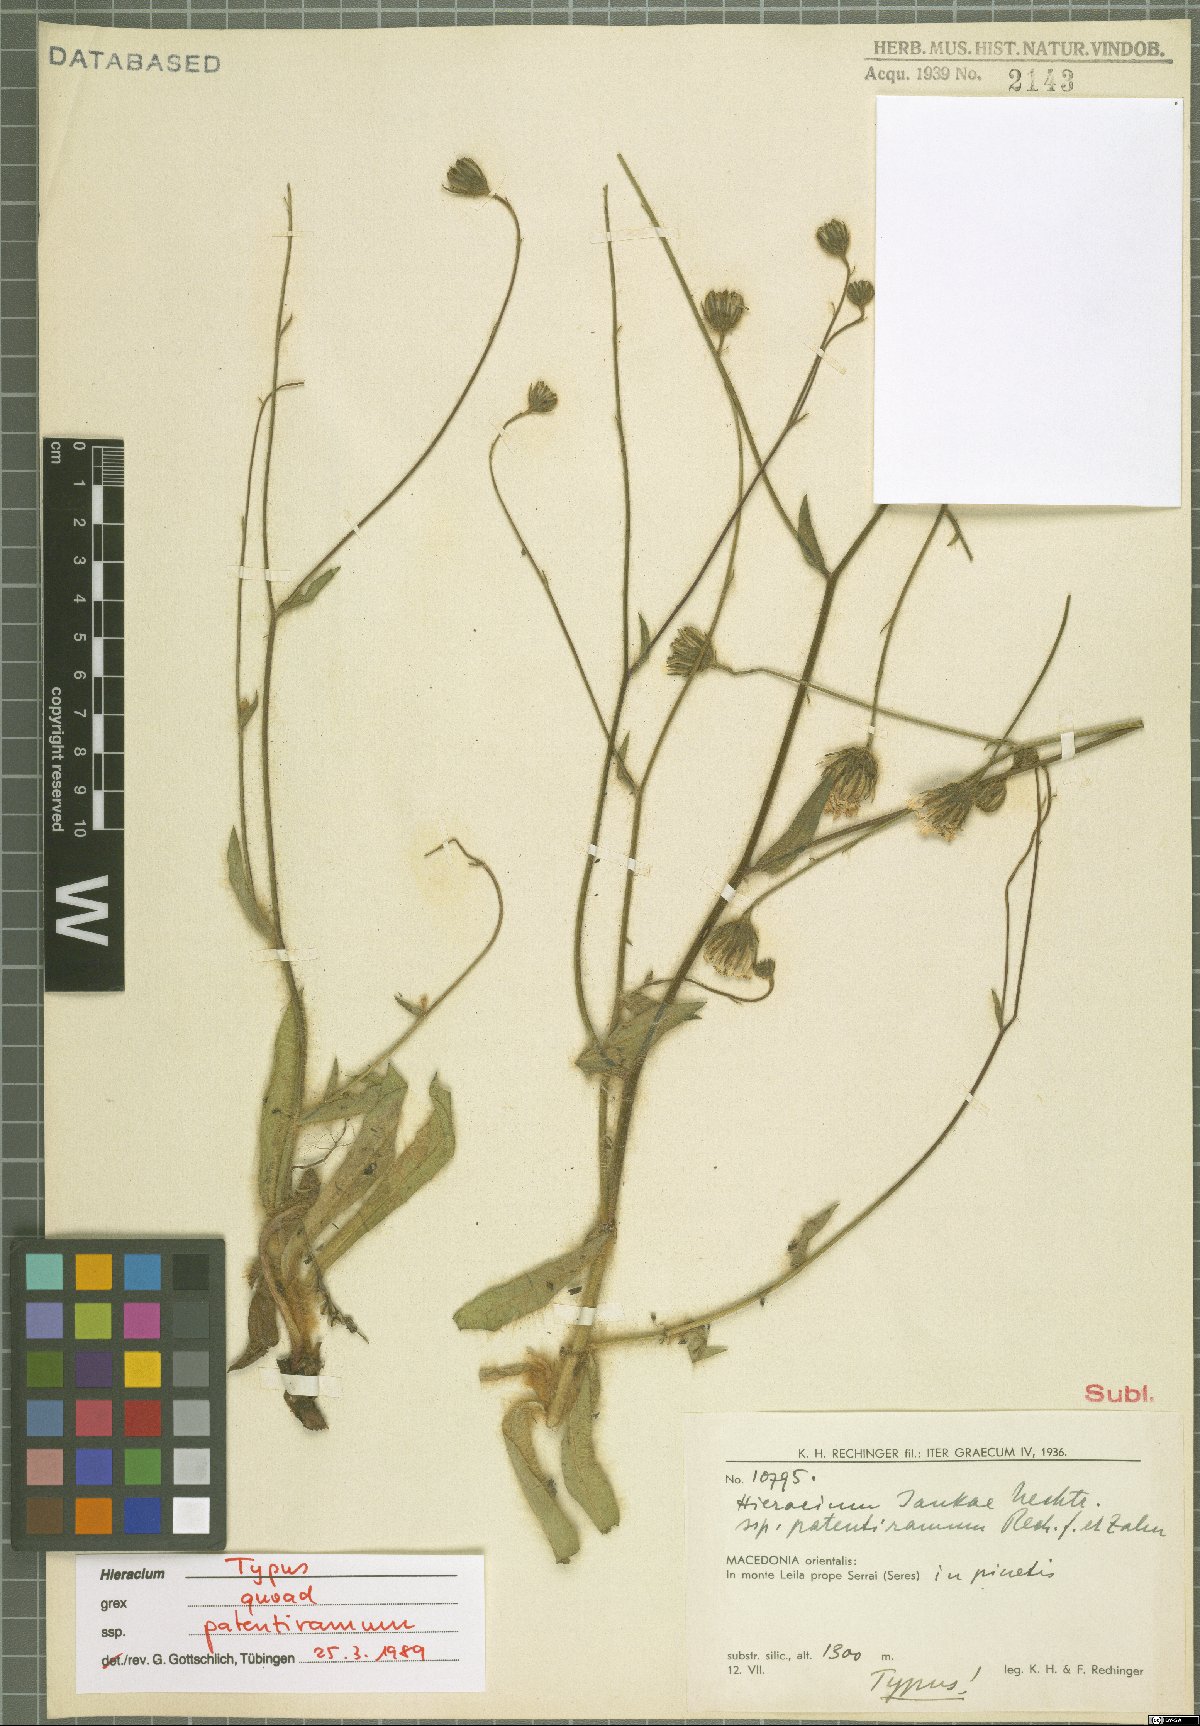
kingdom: Plantae
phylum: Tracheophyta
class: Magnoliopsida
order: Asterales
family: Asteraceae
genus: Hieracium
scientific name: Hieracium jankae
